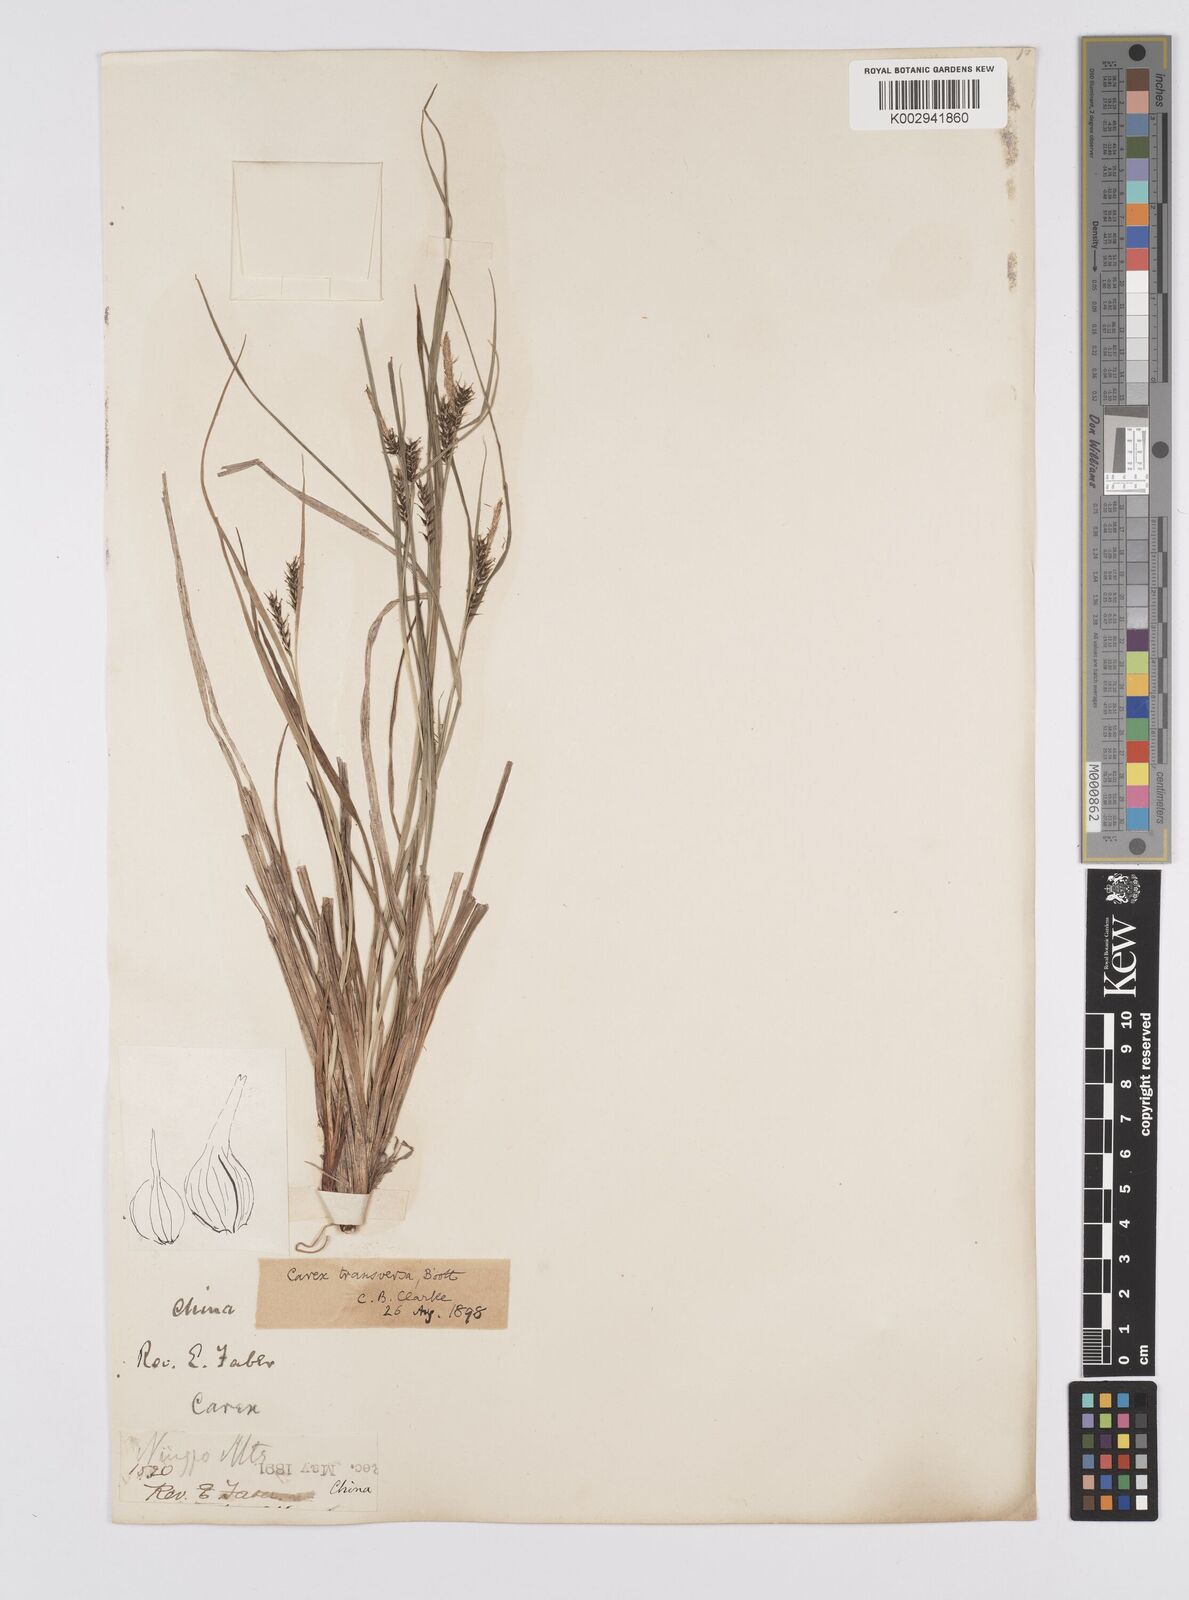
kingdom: Plantae
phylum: Tracheophyta
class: Liliopsida
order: Poales
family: Cyperaceae
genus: Carex
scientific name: Carex brownii
